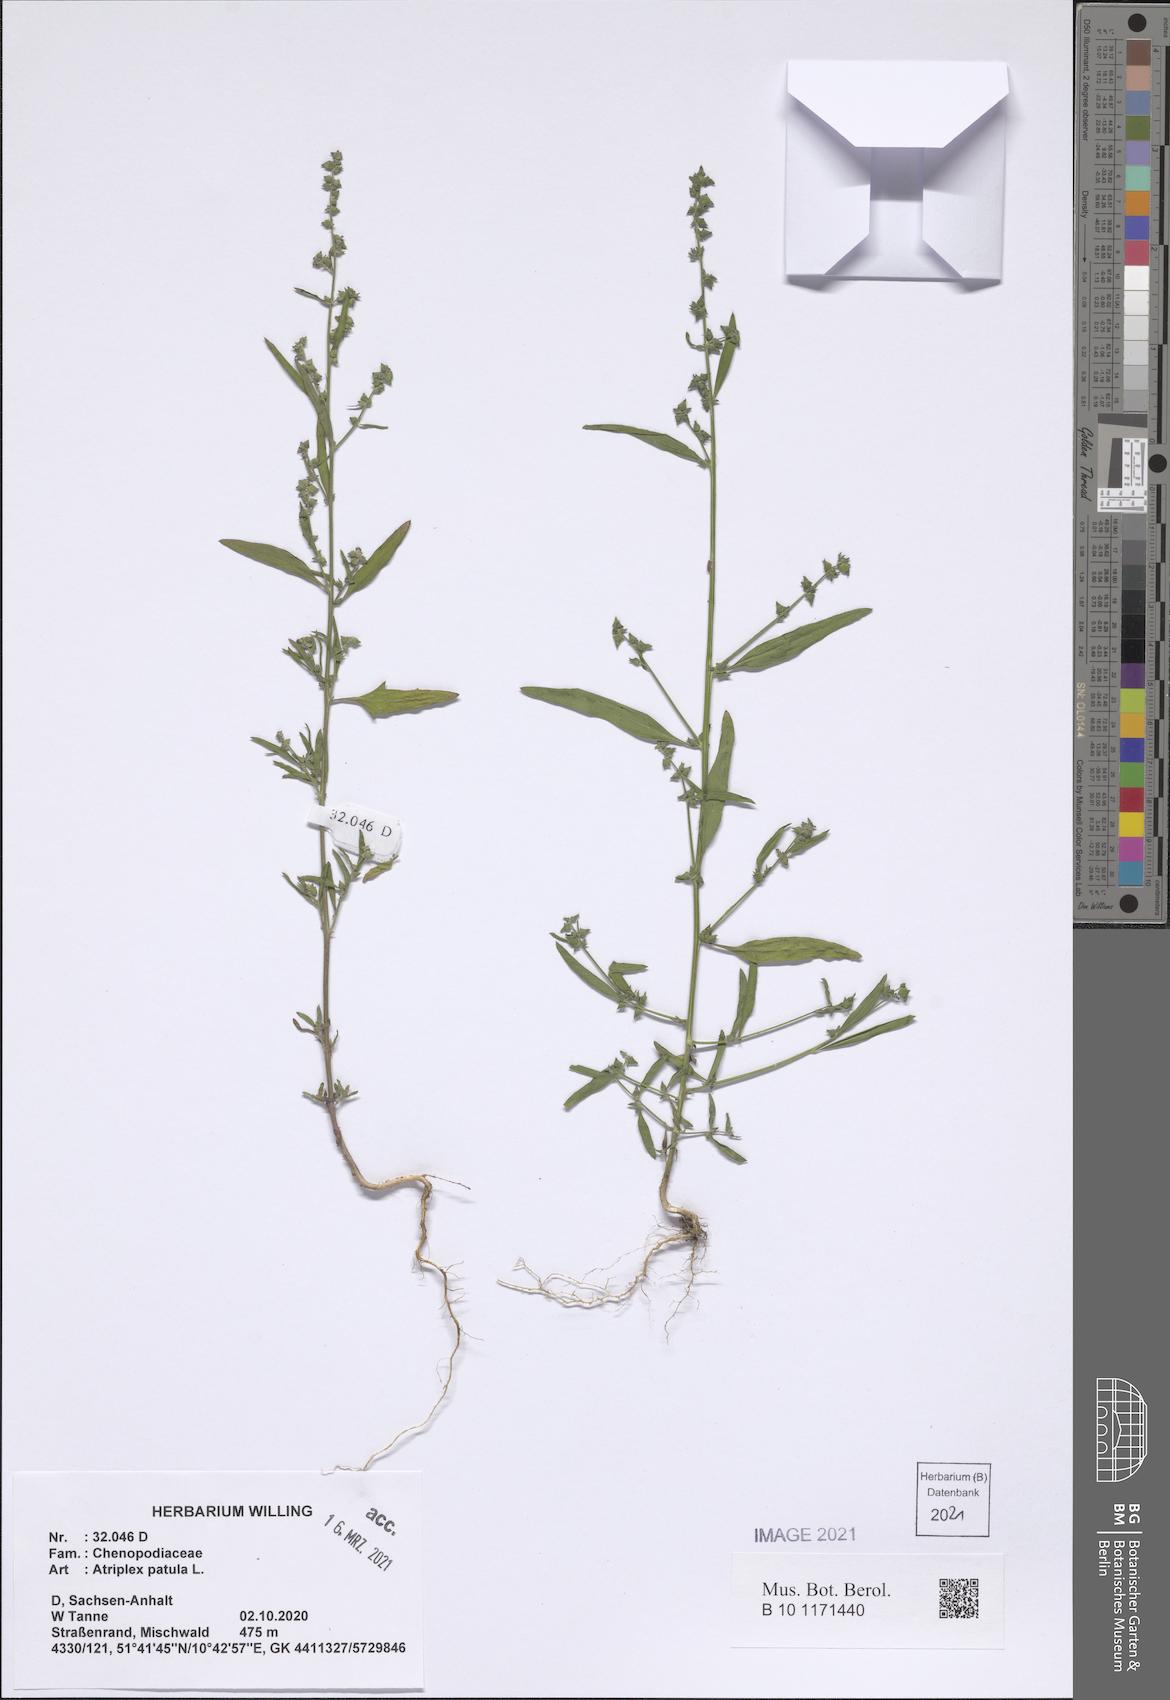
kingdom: Plantae
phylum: Tracheophyta
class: Magnoliopsida
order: Caryophyllales
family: Amaranthaceae
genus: Atriplex
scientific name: Atriplex patula
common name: Common orache
